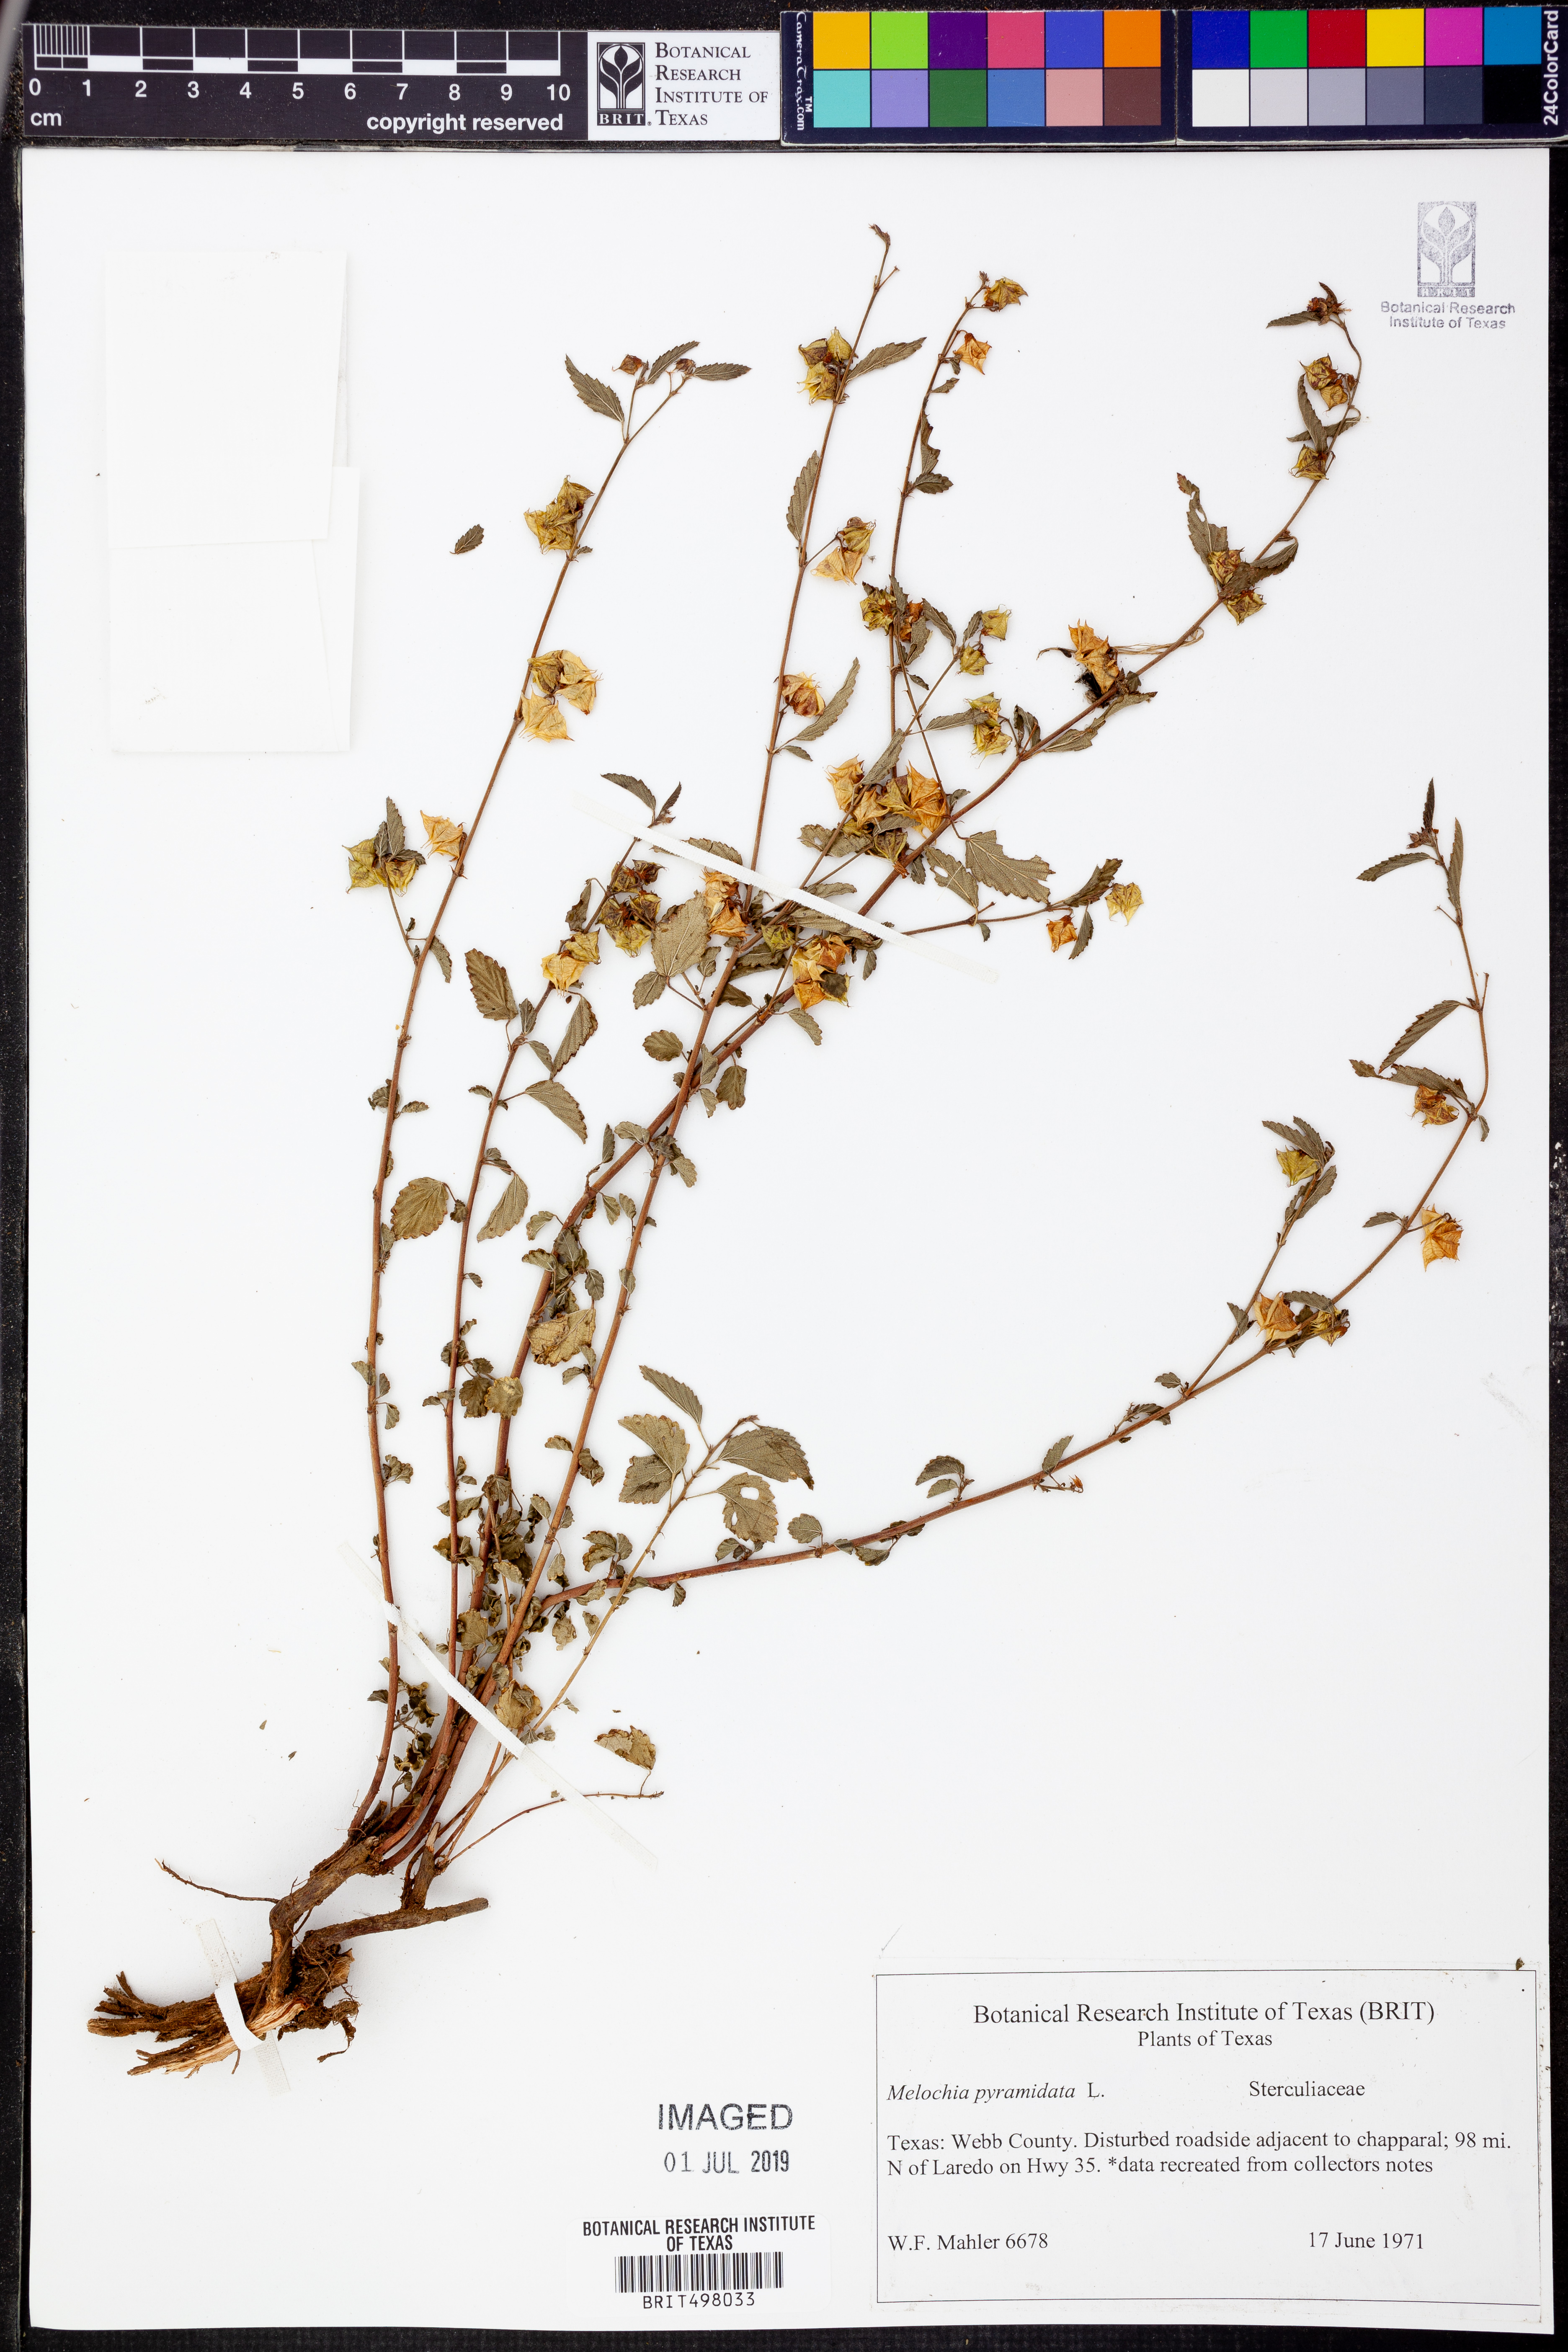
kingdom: Plantae
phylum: Tracheophyta
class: Magnoliopsida
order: Malvales
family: Malvaceae
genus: Melochia
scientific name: Melochia pyramidata
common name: Pyramidflower
